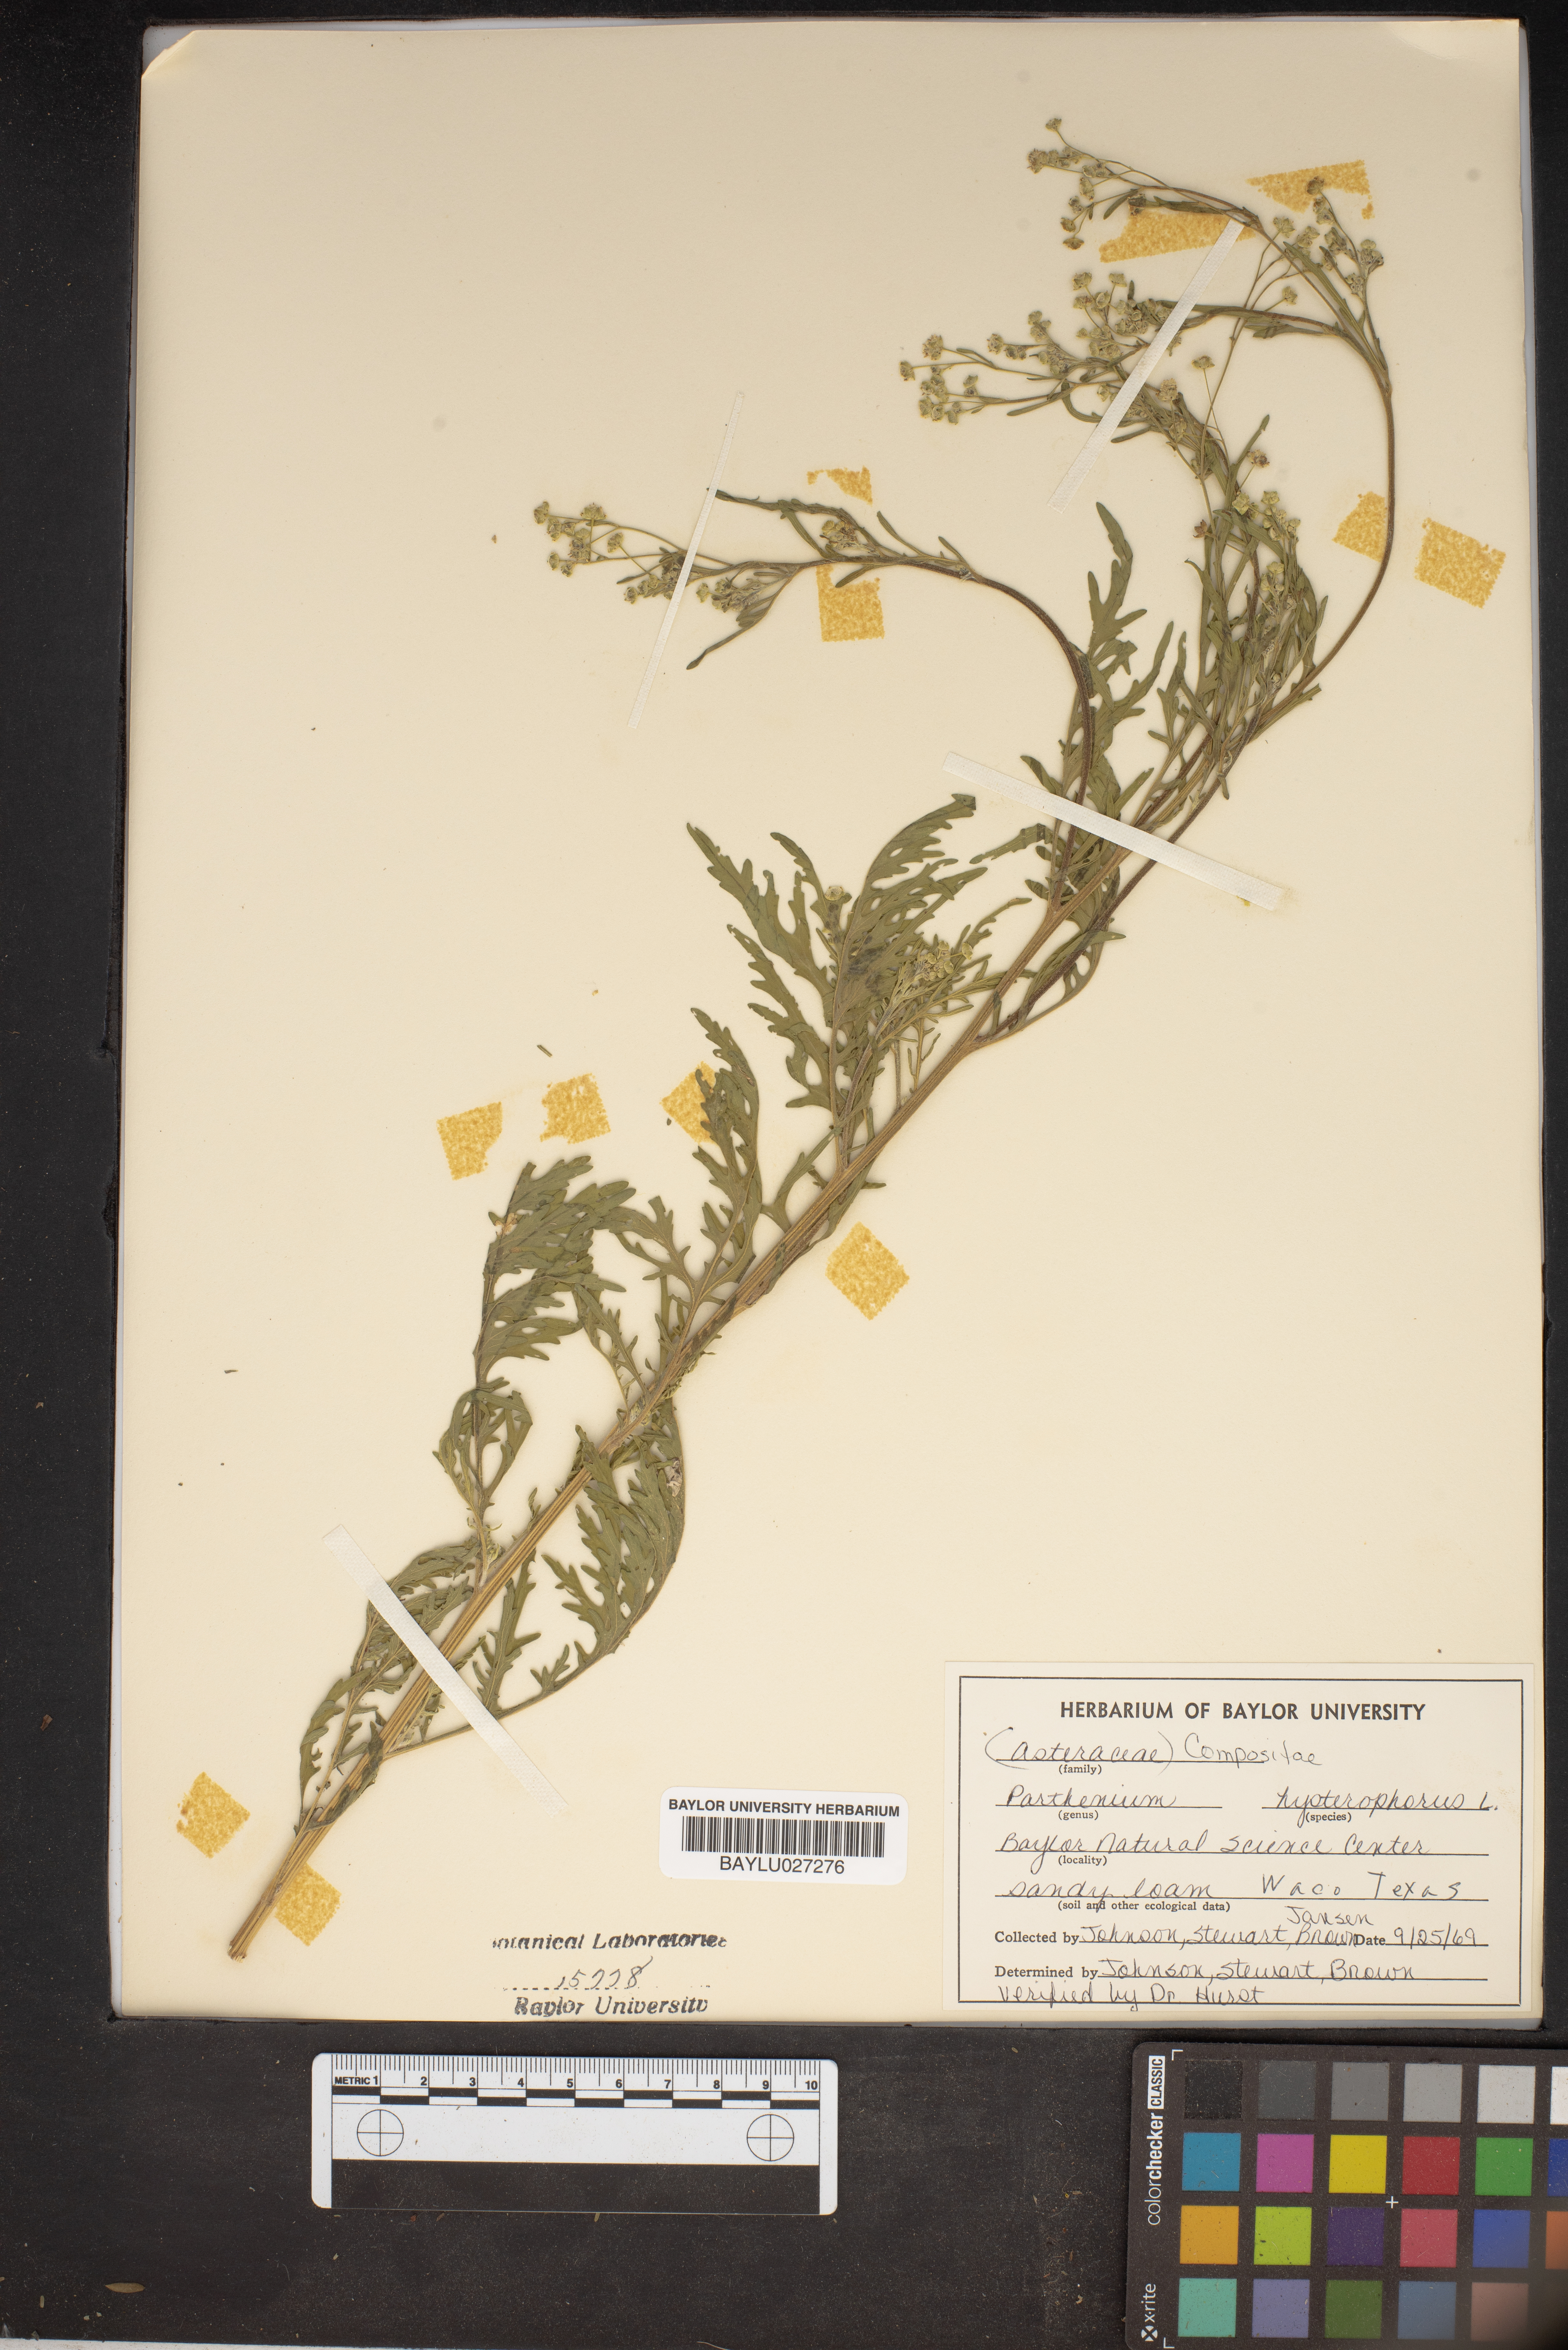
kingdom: Plantae
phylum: Tracheophyta
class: Magnoliopsida
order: Asterales
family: Asteraceae
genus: Parthenium
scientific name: Parthenium hysterophorus
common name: Santa maria feverfew
